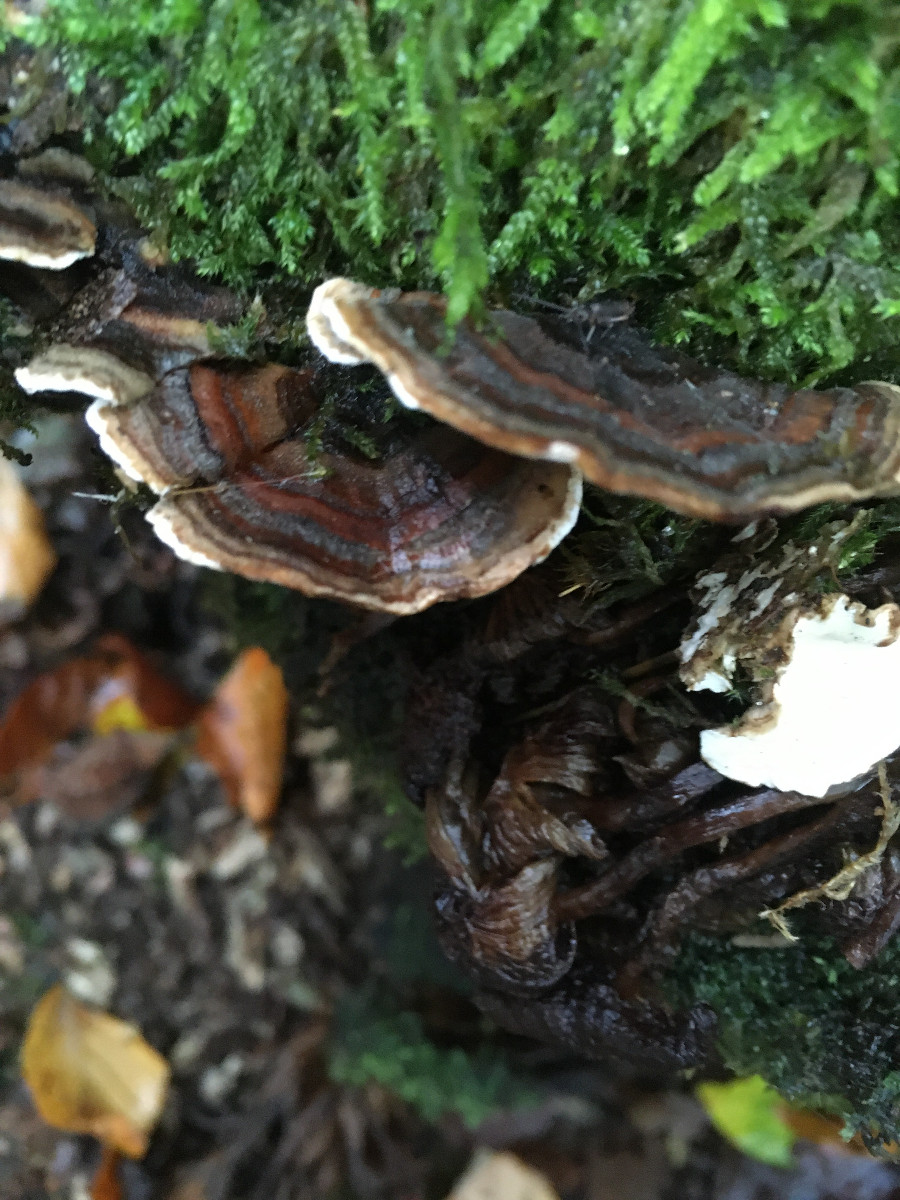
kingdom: Fungi
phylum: Basidiomycota
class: Agaricomycetes
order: Polyporales
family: Polyporaceae
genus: Trametes
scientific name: Trametes versicolor
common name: broget læderporesvamp
